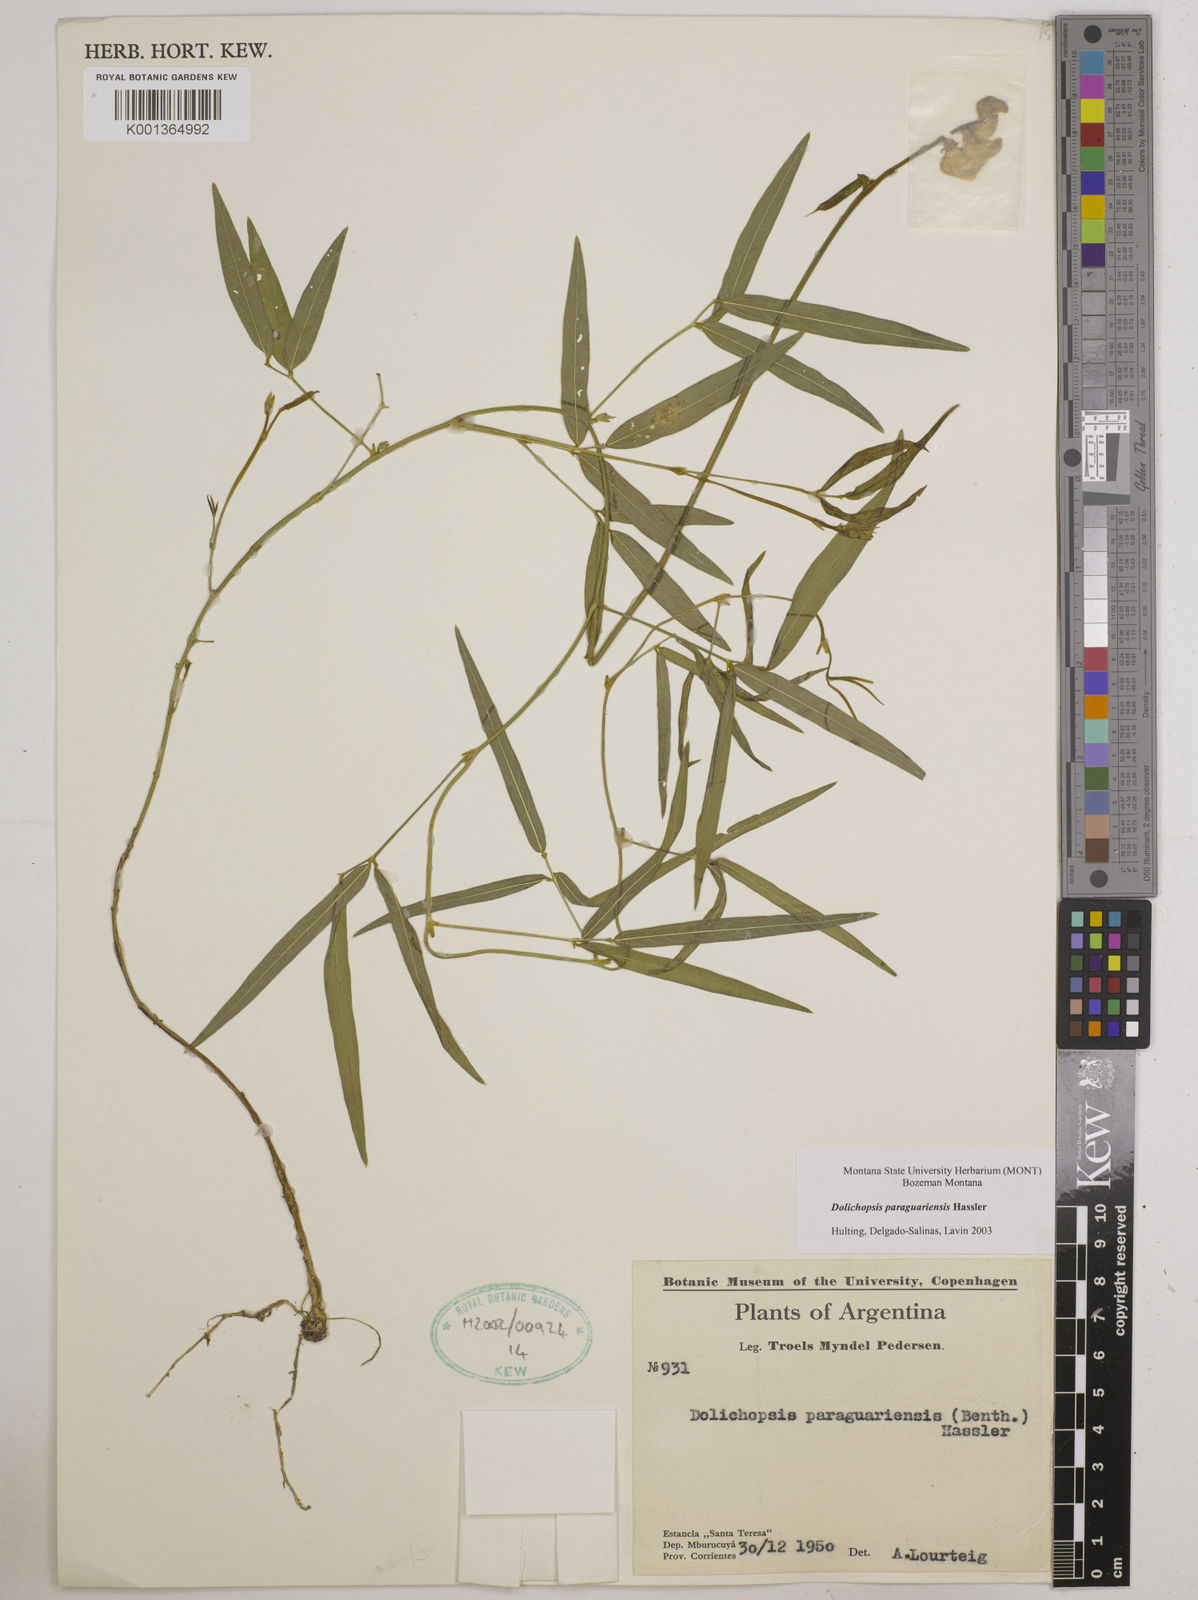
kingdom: Plantae
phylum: Tracheophyta
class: Magnoliopsida
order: Fabales
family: Fabaceae
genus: Dolichopsis
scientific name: Dolichopsis paraguariensis
